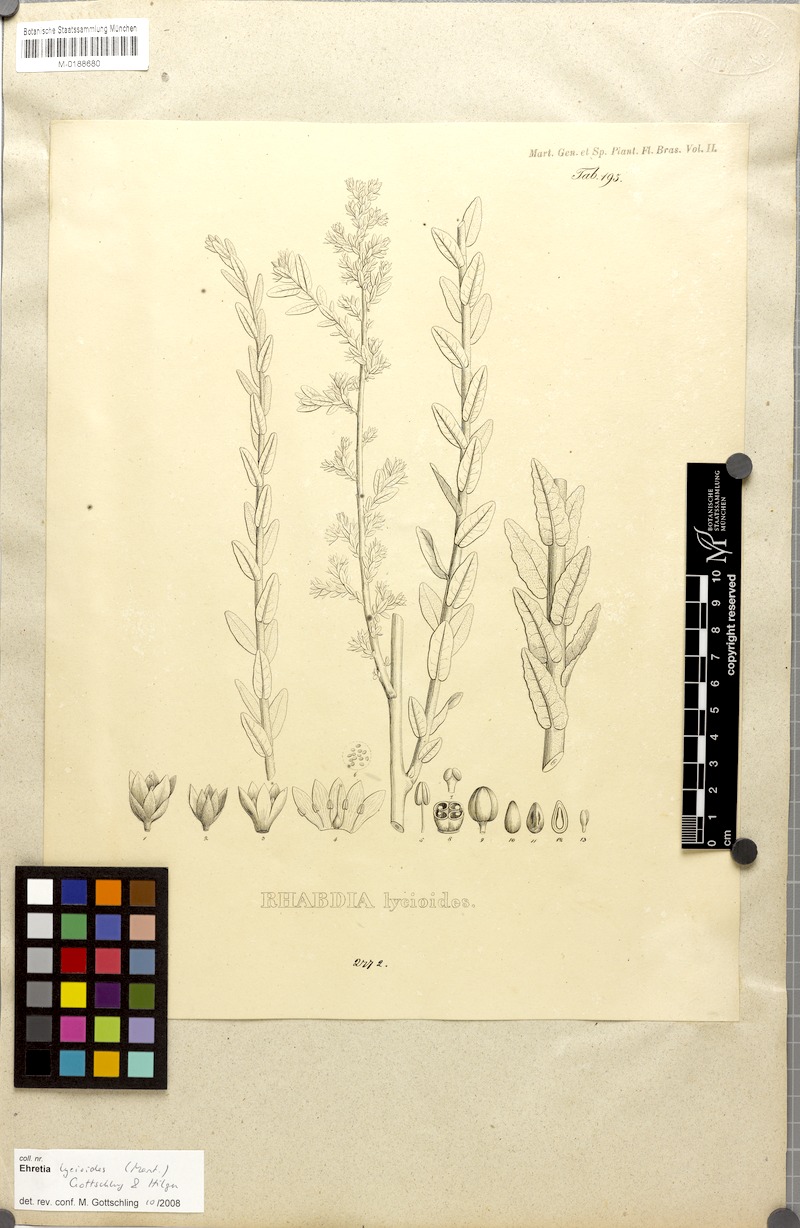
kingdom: Plantae
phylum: Tracheophyta
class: Magnoliopsida
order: Boraginales
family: Ehretiaceae
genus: Ehretia
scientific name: Ehretia lycioides
